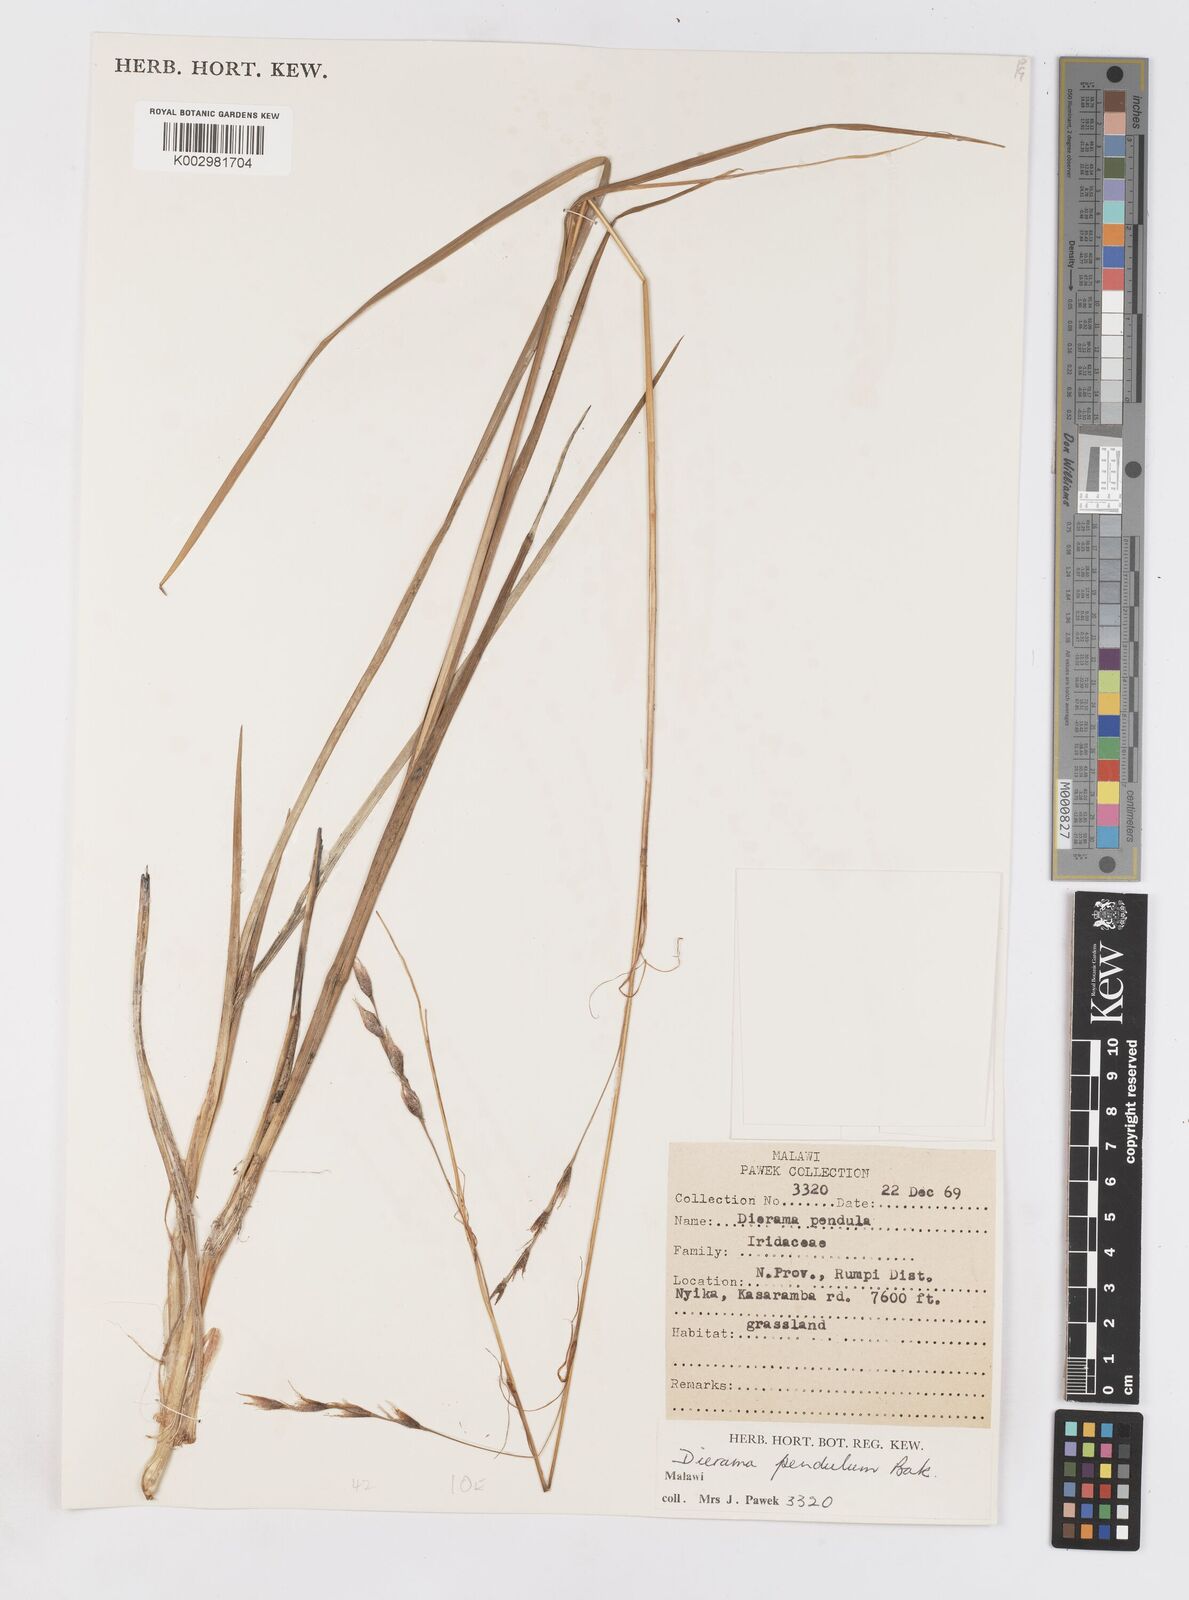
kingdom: Plantae
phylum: Tracheophyta
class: Liliopsida
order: Asparagales
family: Iridaceae
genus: Dierama
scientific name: Dierama cupuliflorum
